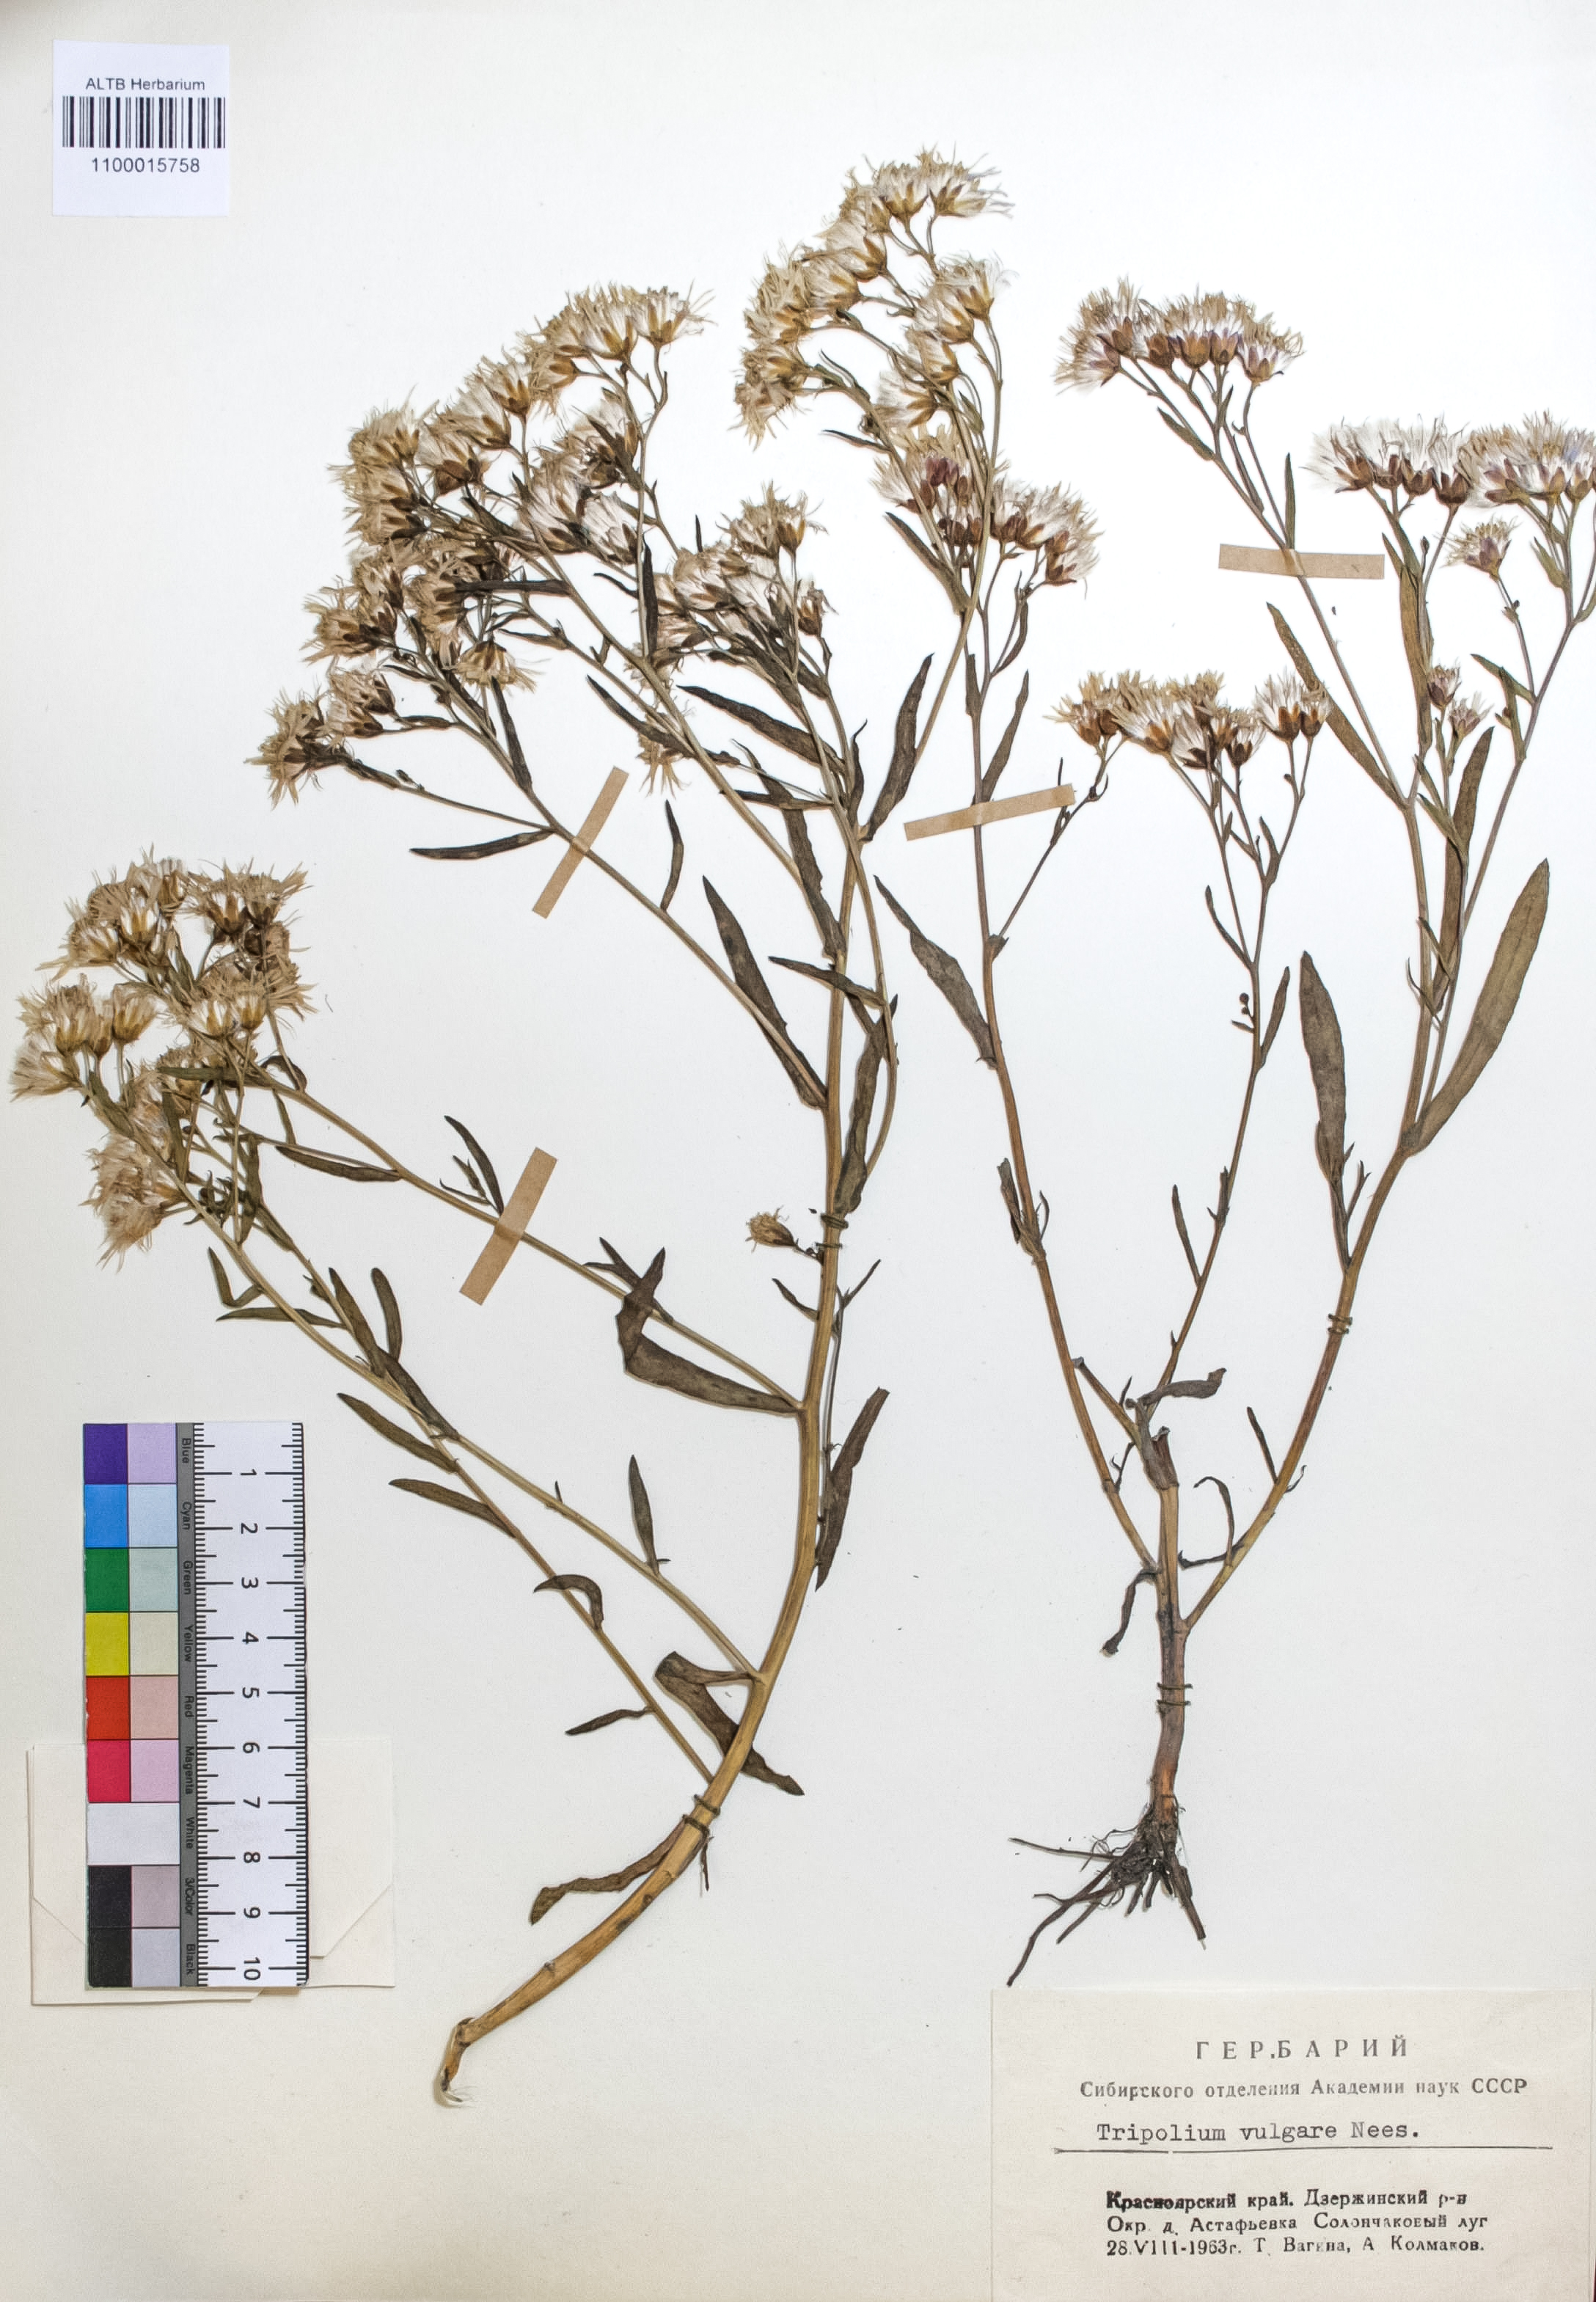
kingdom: Plantae
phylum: Tracheophyta
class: Magnoliopsida
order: Asterales
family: Asteraceae
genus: Tripolium
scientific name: Tripolium pannonicum
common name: Sea aster
